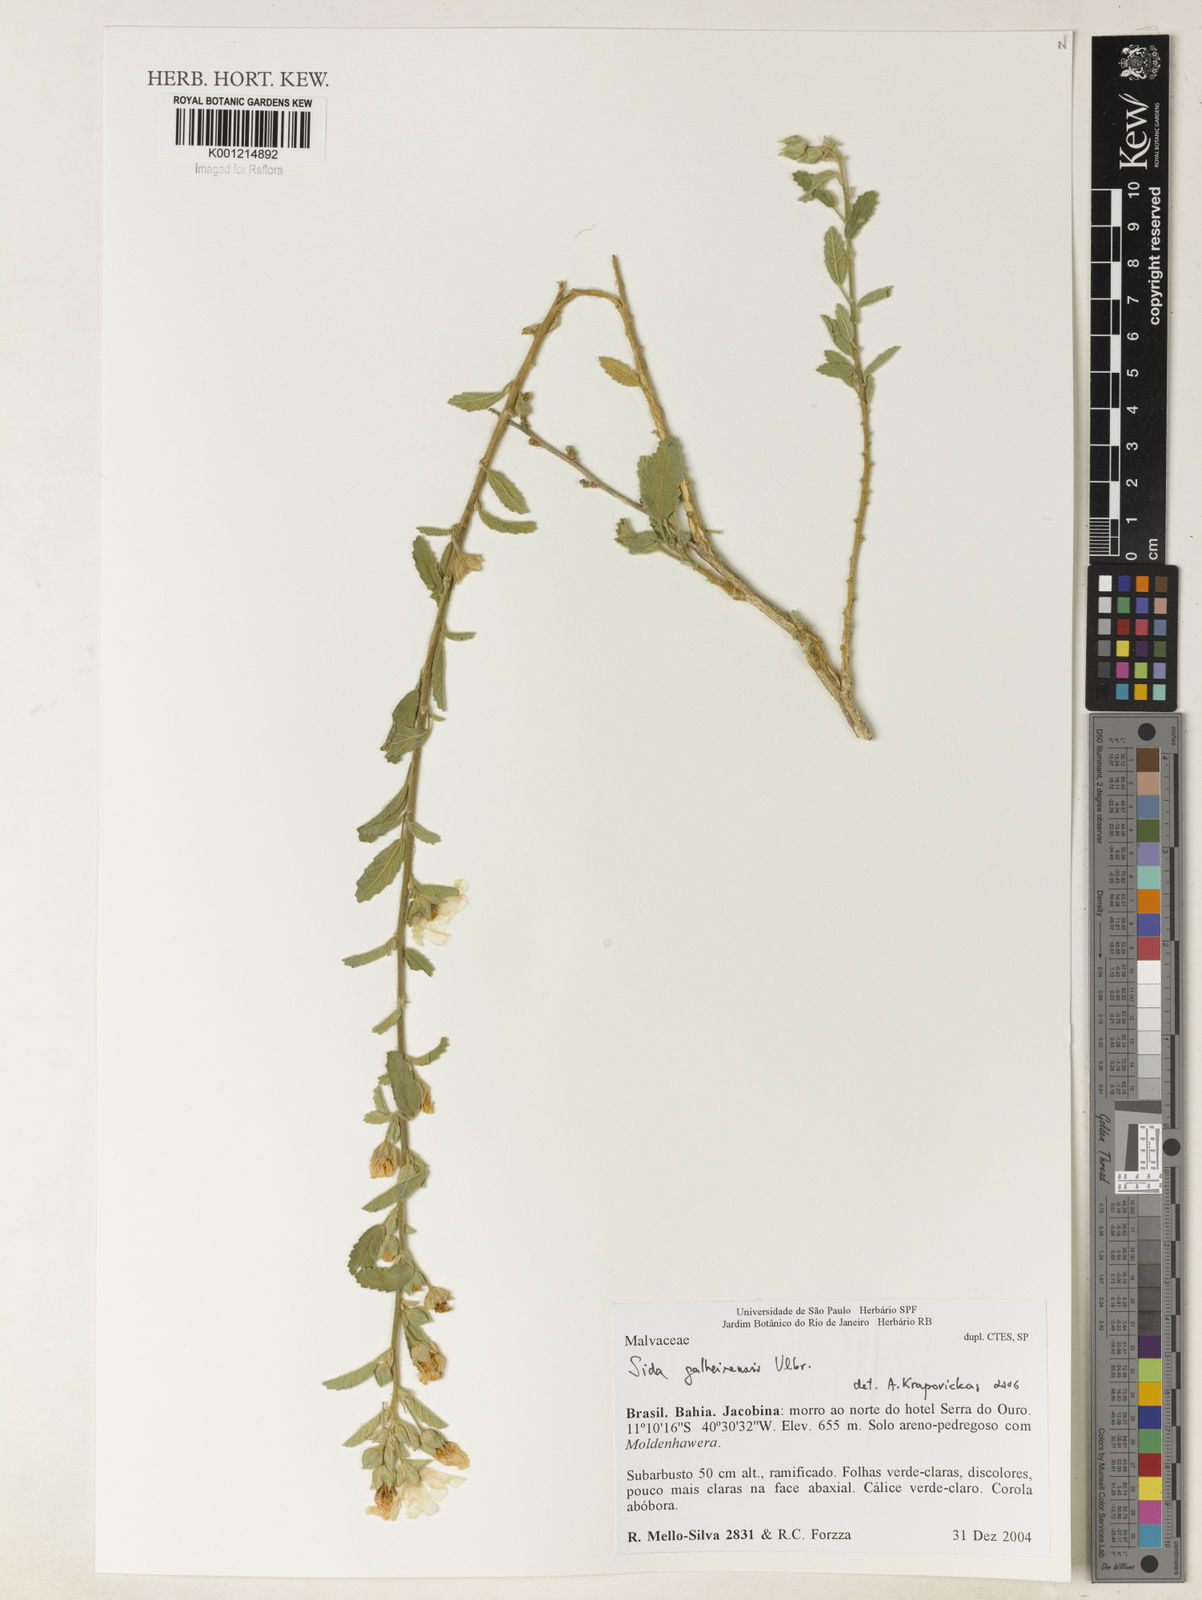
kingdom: Plantae
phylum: Tracheophyta
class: Magnoliopsida
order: Malvales
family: Malvaceae
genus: Sida
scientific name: Sida galheirensis
